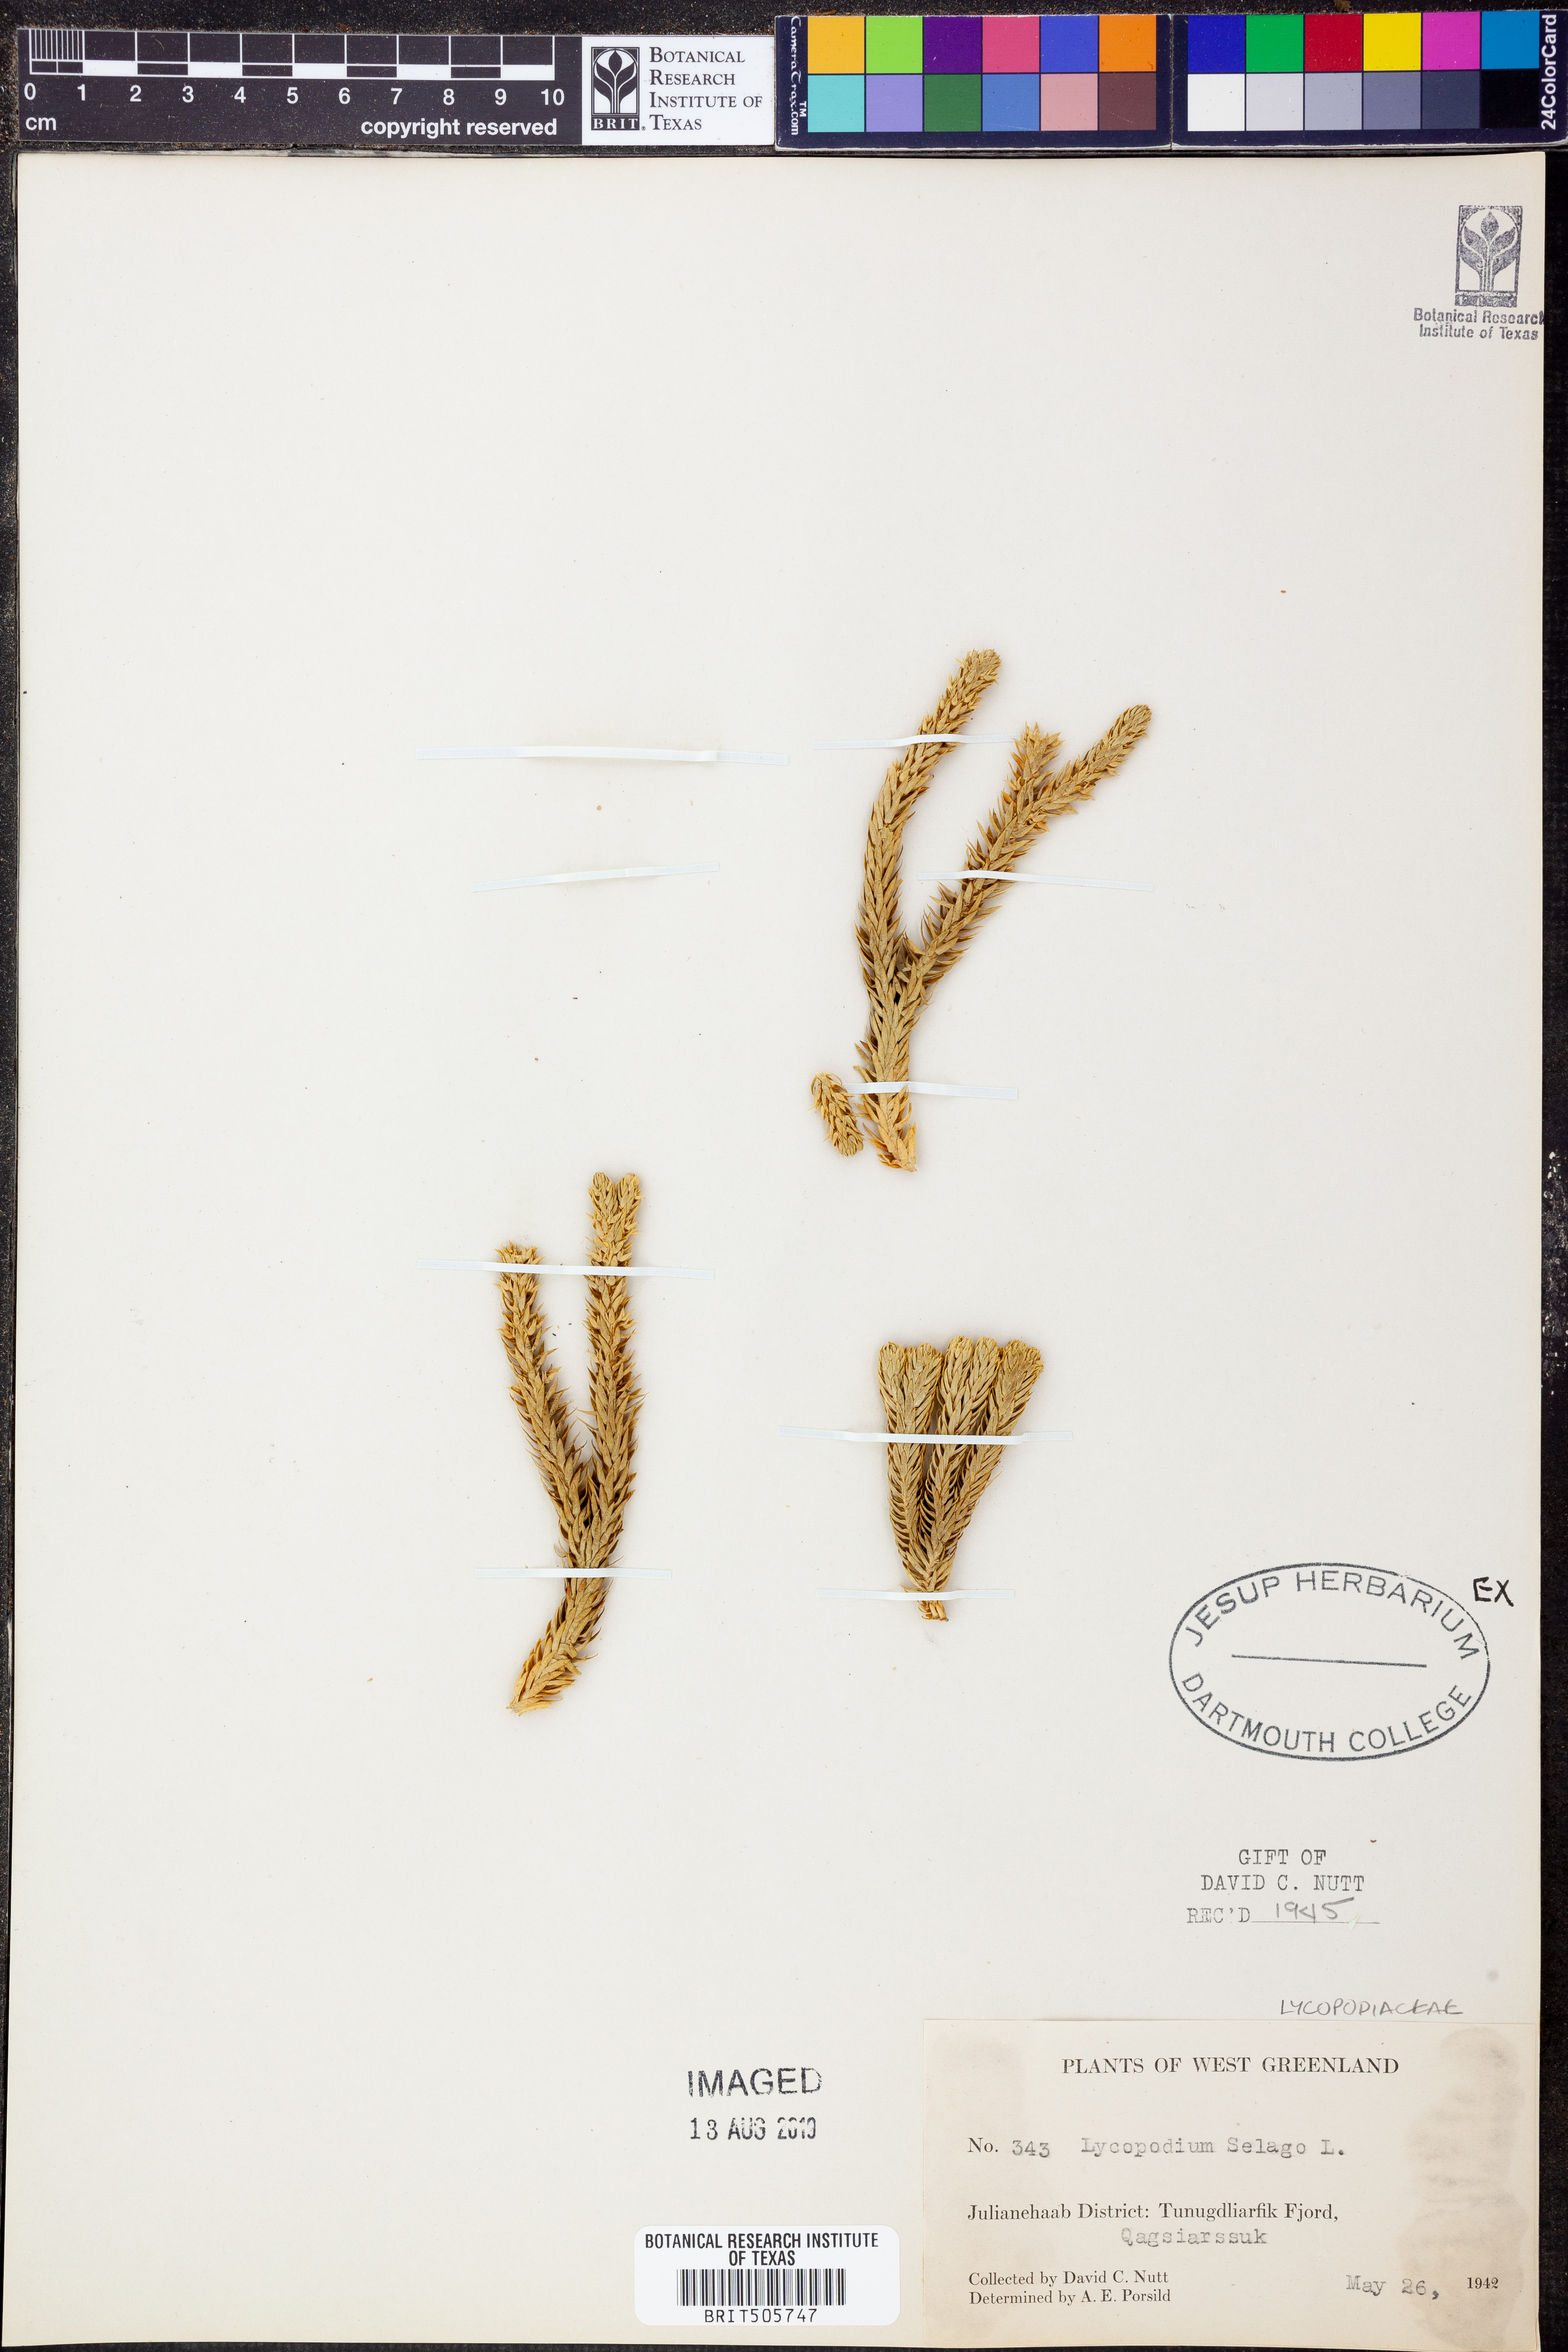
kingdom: Plantae
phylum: Tracheophyta
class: Lycopodiopsida
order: Lycopodiales
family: Lycopodiaceae
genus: Huperzia
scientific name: Huperzia selago
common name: Northern firmoss
